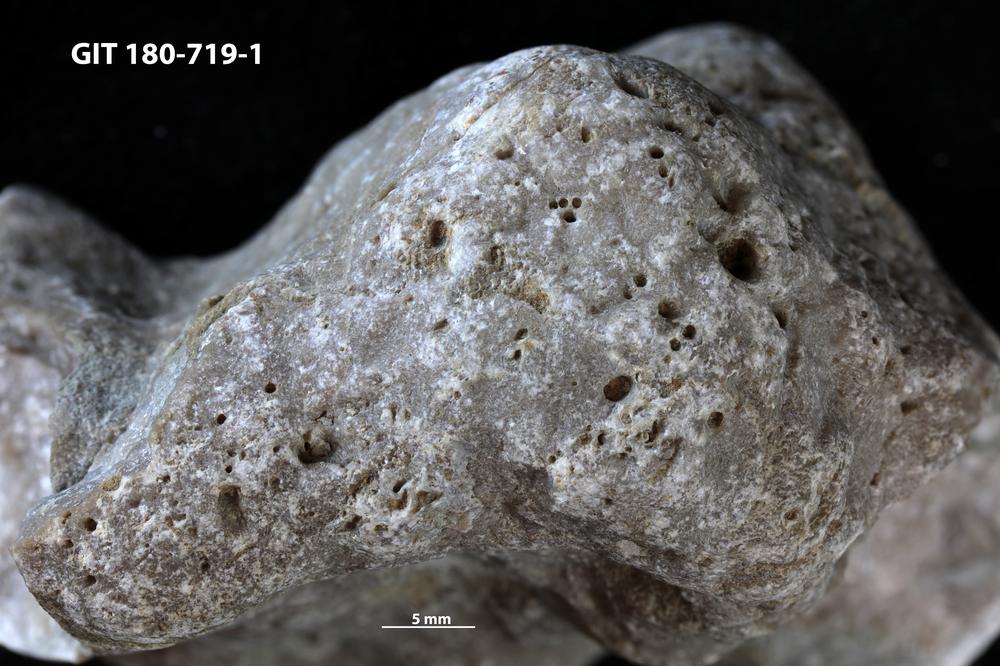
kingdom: Animalia
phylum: Annelida
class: Polychaeta
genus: Palaeosabella
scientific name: Palaeosabella
